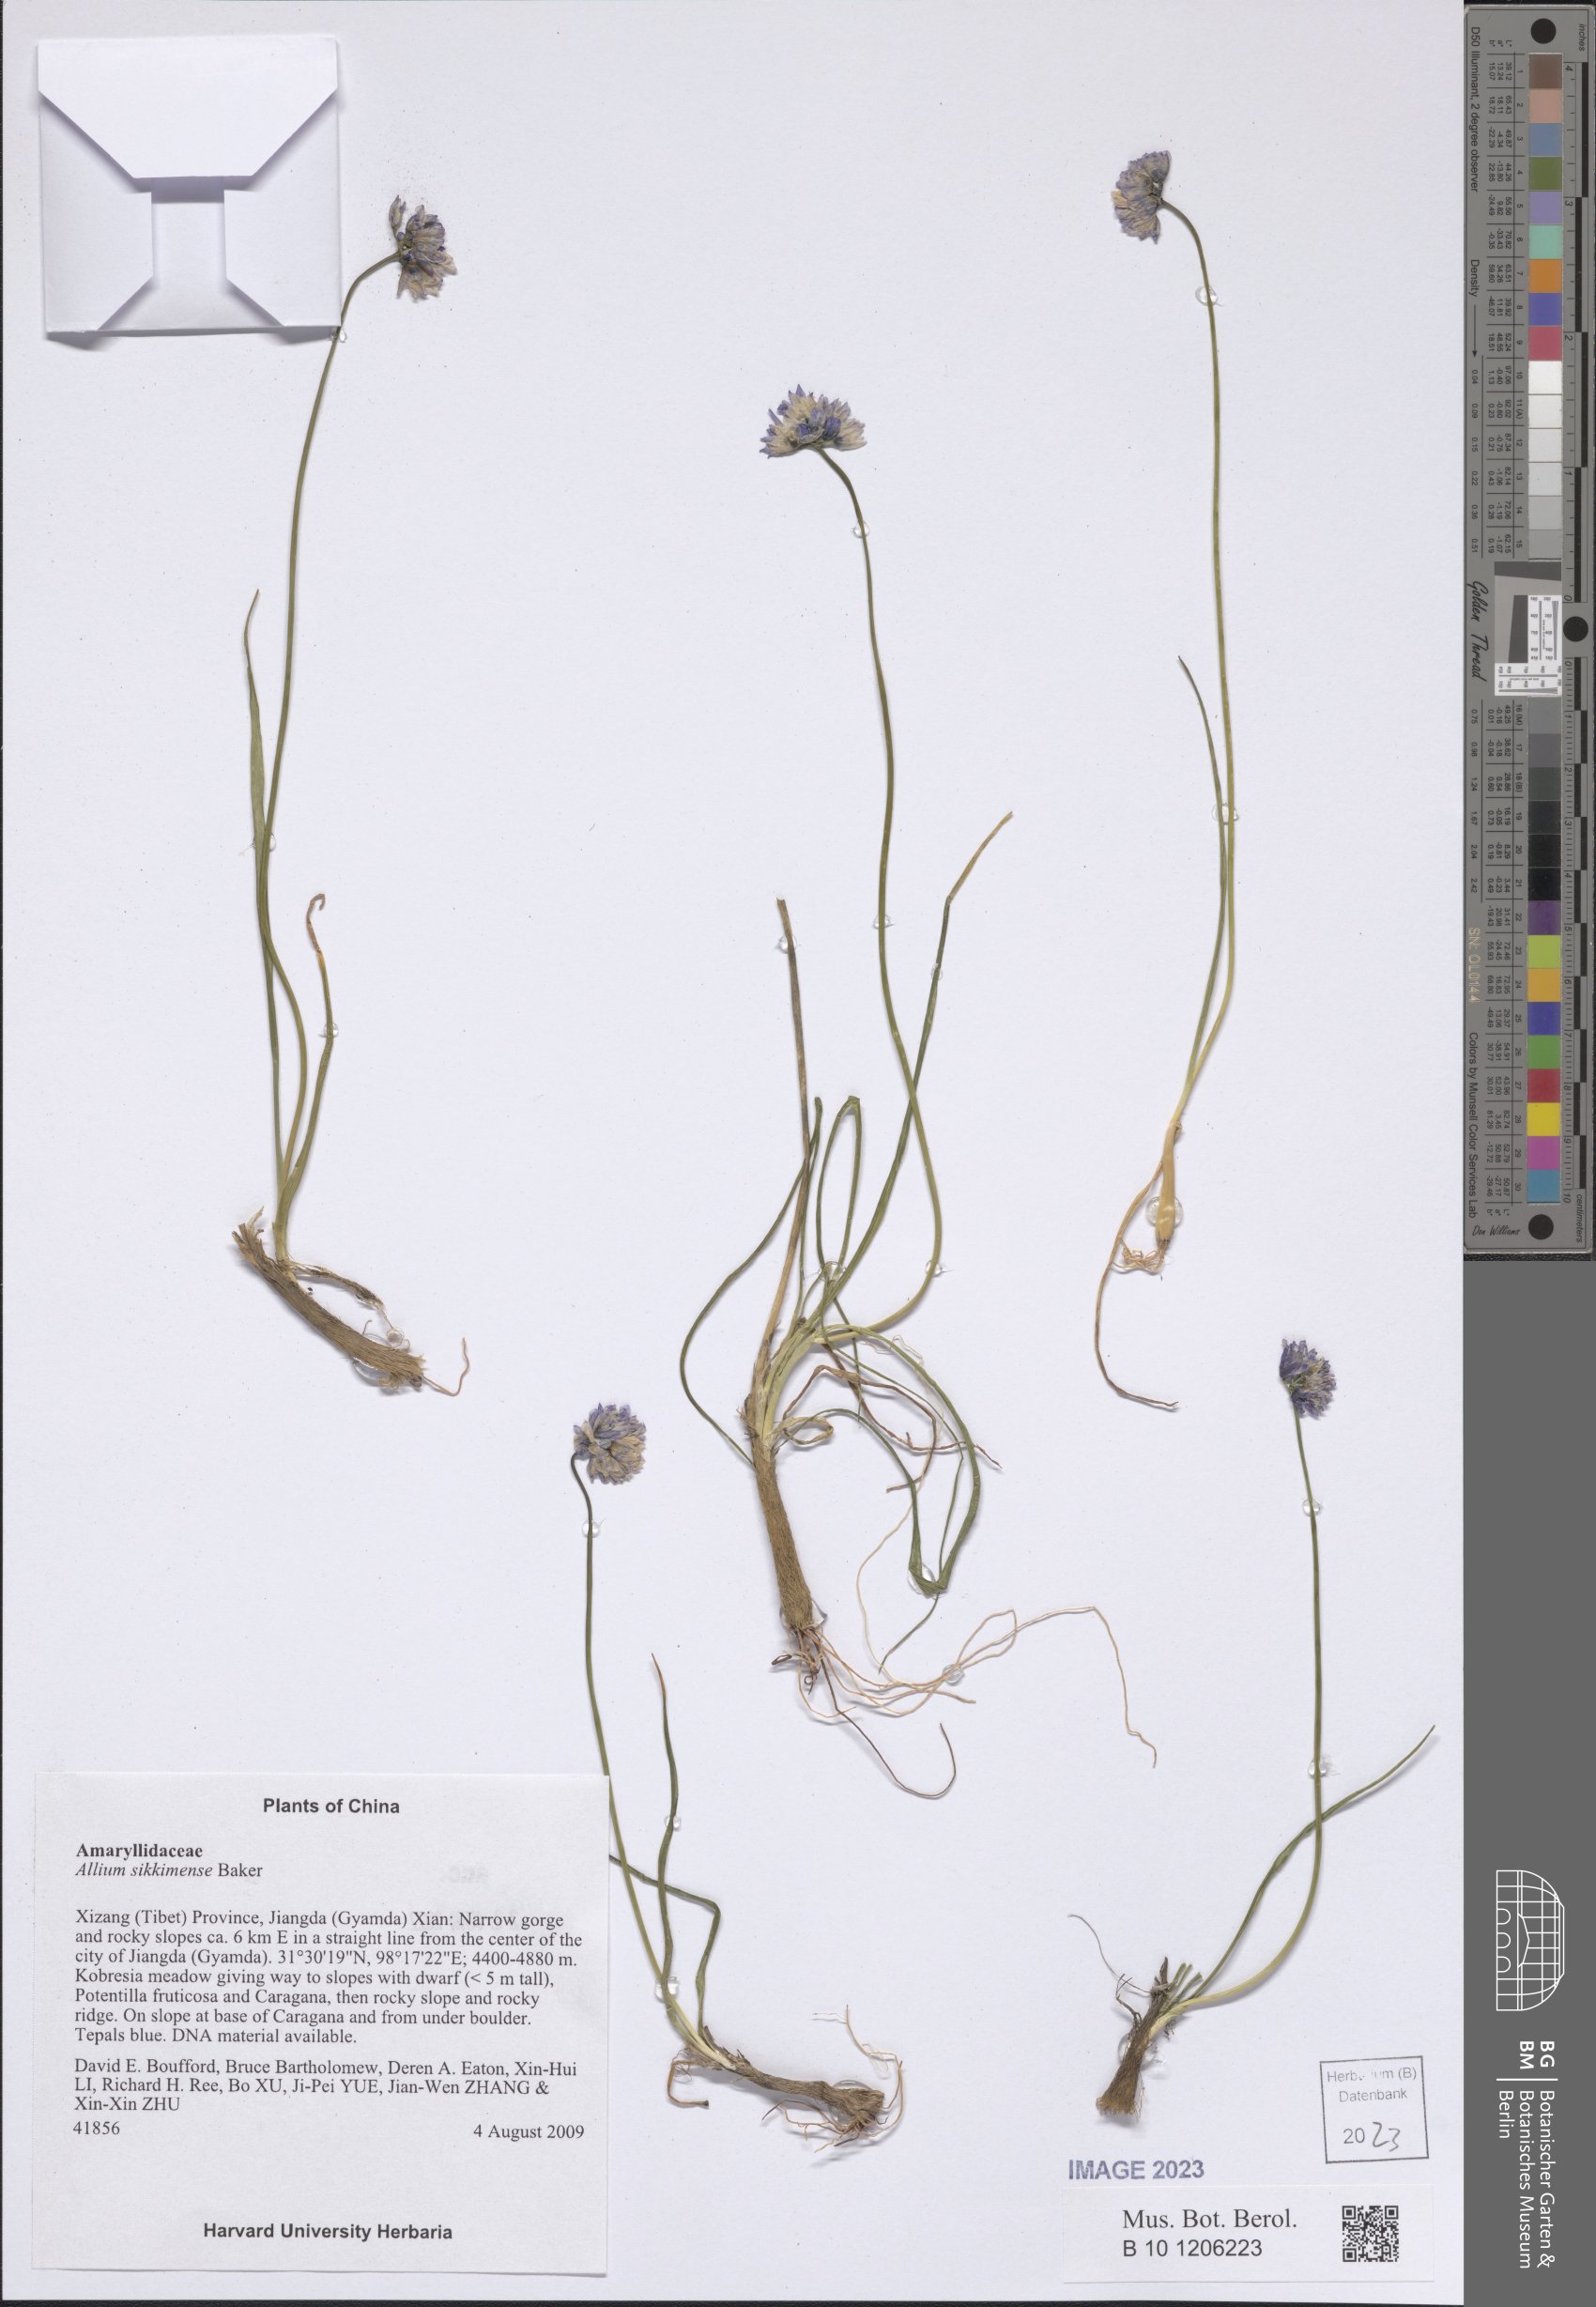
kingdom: Plantae
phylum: Tracheophyta
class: Liliopsida
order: Asparagales
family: Amaryllidaceae
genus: Allium
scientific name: Allium sikkimense
